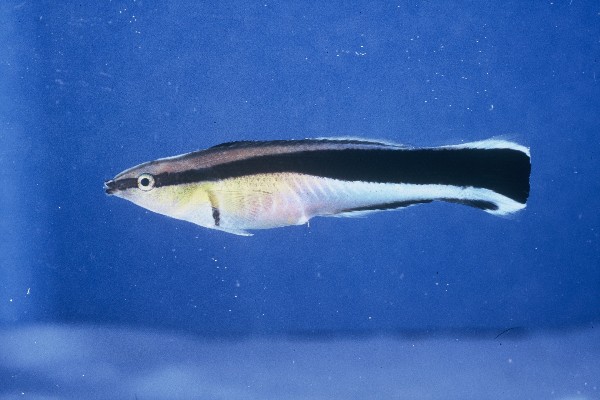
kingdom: Animalia
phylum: Chordata
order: Perciformes
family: Labridae
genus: Labroides
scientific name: Labroides dimidiatus
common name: Blue diesel wrasse
